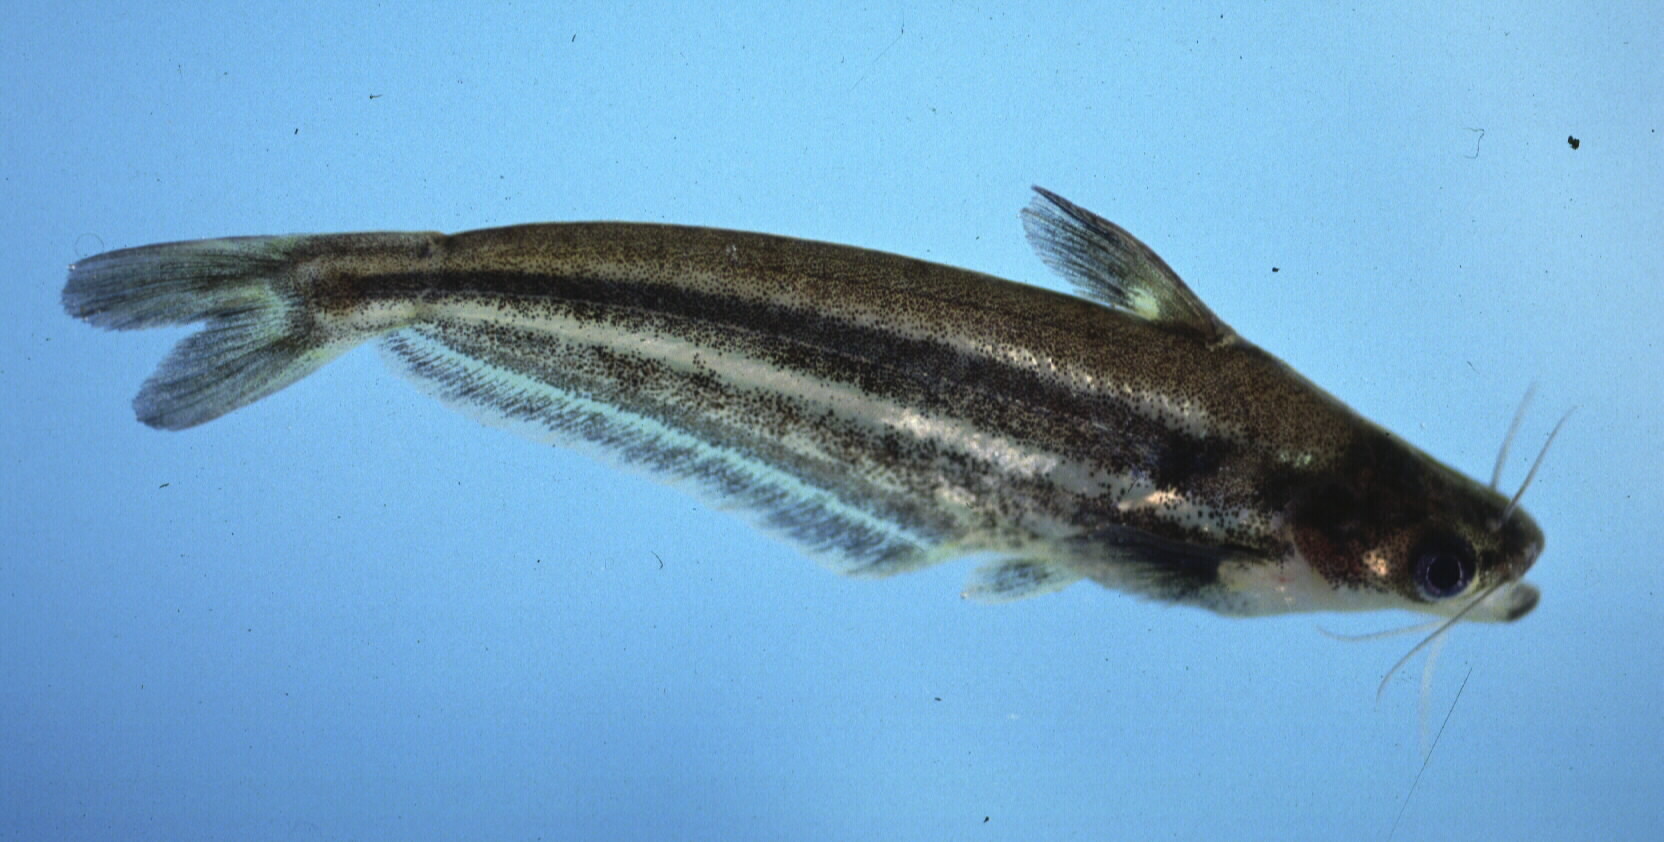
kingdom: Animalia
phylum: Chordata
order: Siluriformes
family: Schilbeidae
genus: Schilbe
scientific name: Schilbe intermedius
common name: Silver catfish
